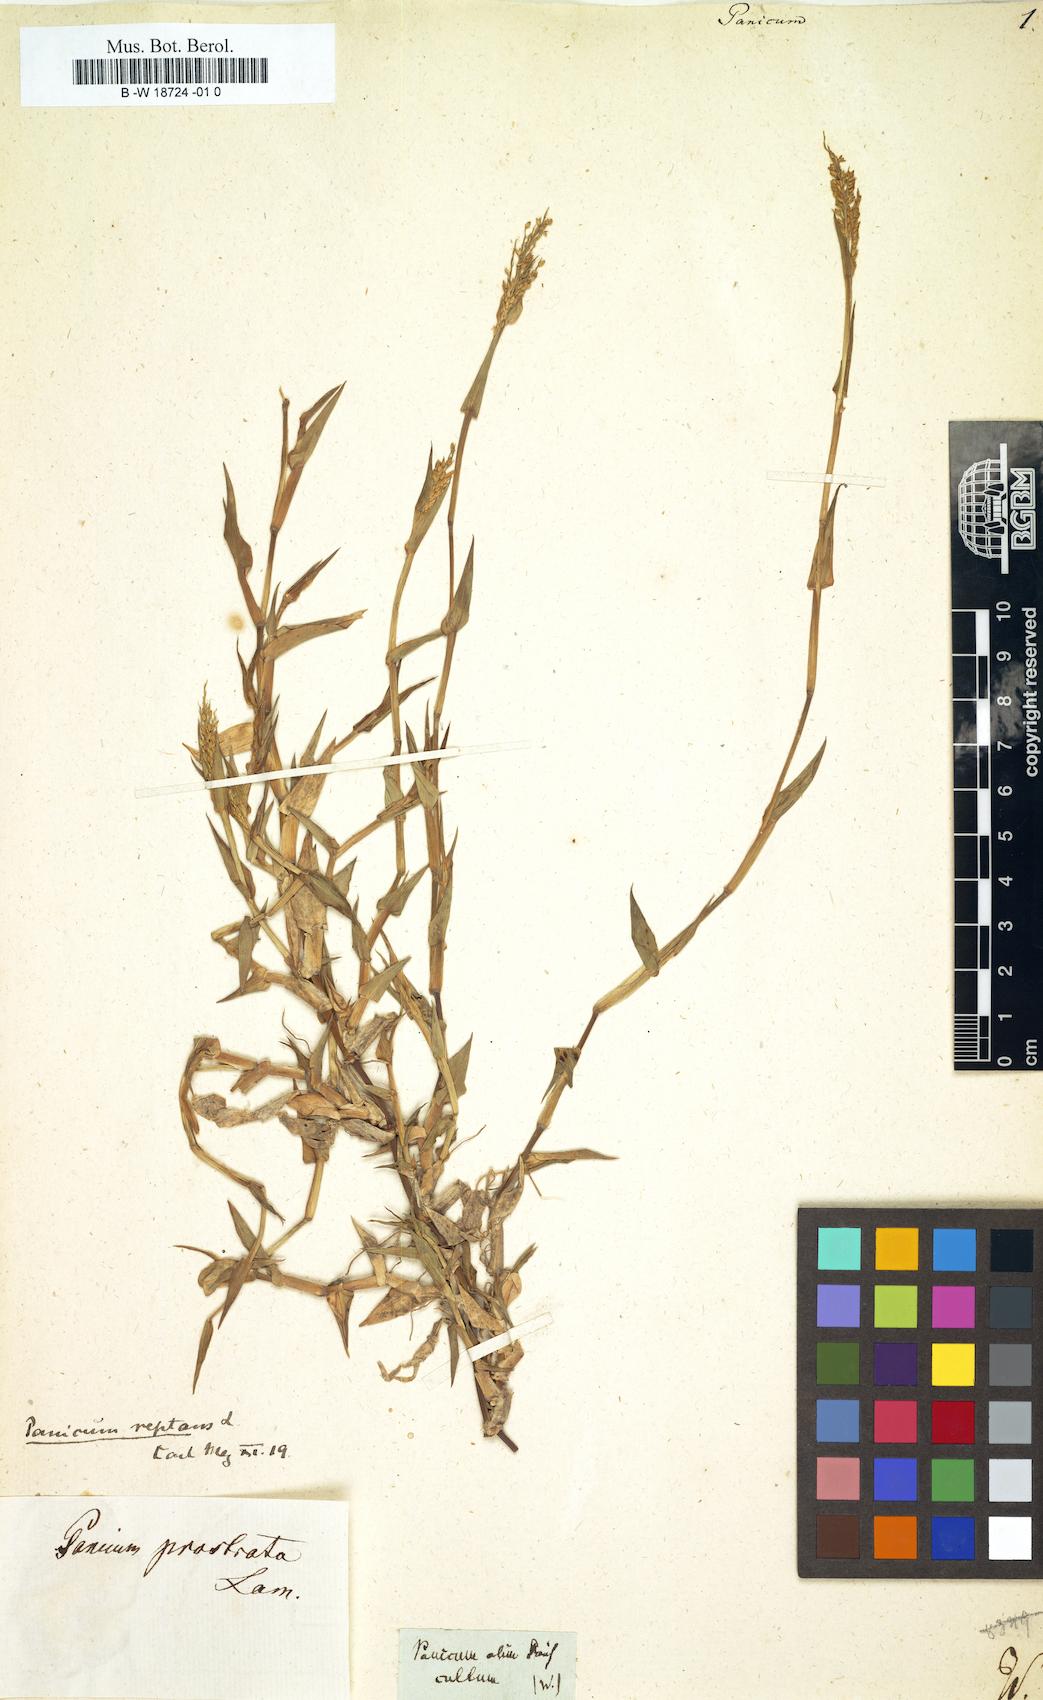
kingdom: Plantae
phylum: Tracheophyta
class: Liliopsida
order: Poales
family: Poaceae
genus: Panicum
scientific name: Panicum
